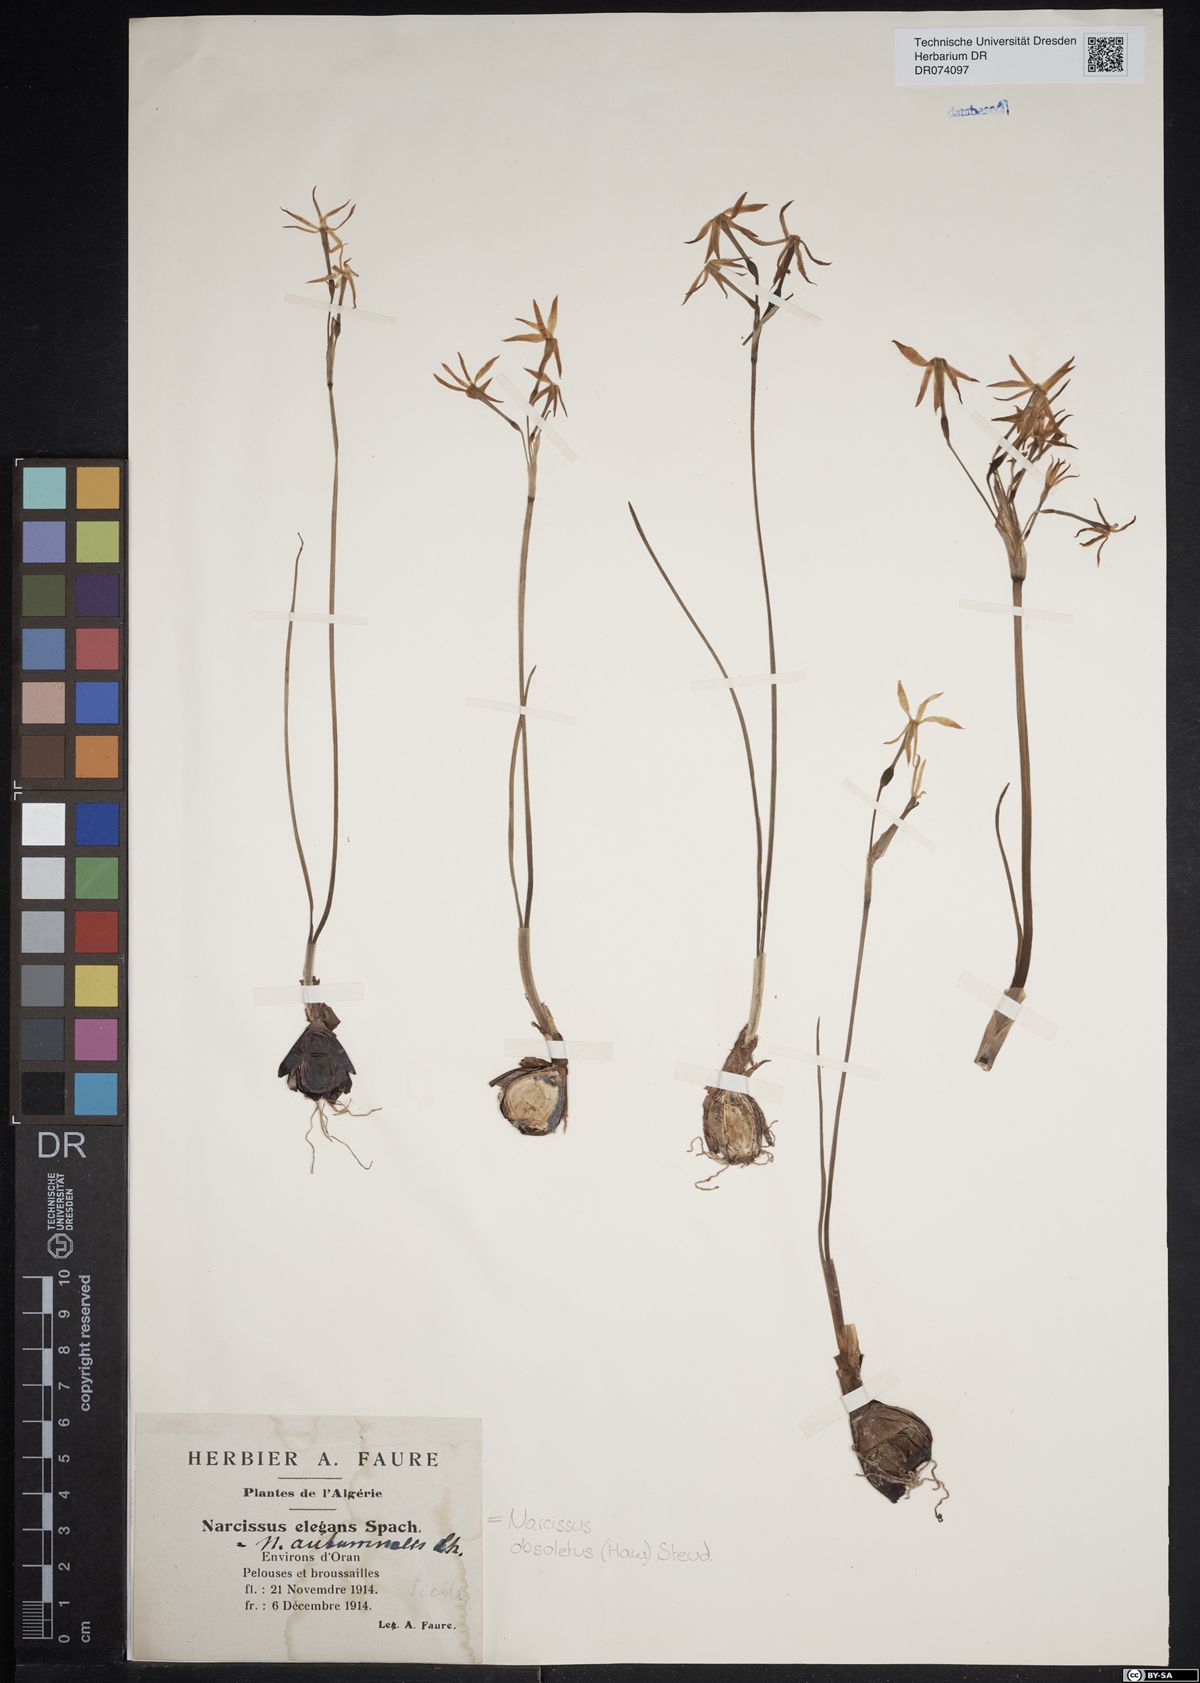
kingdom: Plantae
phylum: Tracheophyta
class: Liliopsida
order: Asparagales
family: Amaryllidaceae
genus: Narcissus
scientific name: Narcissus obsoletus
